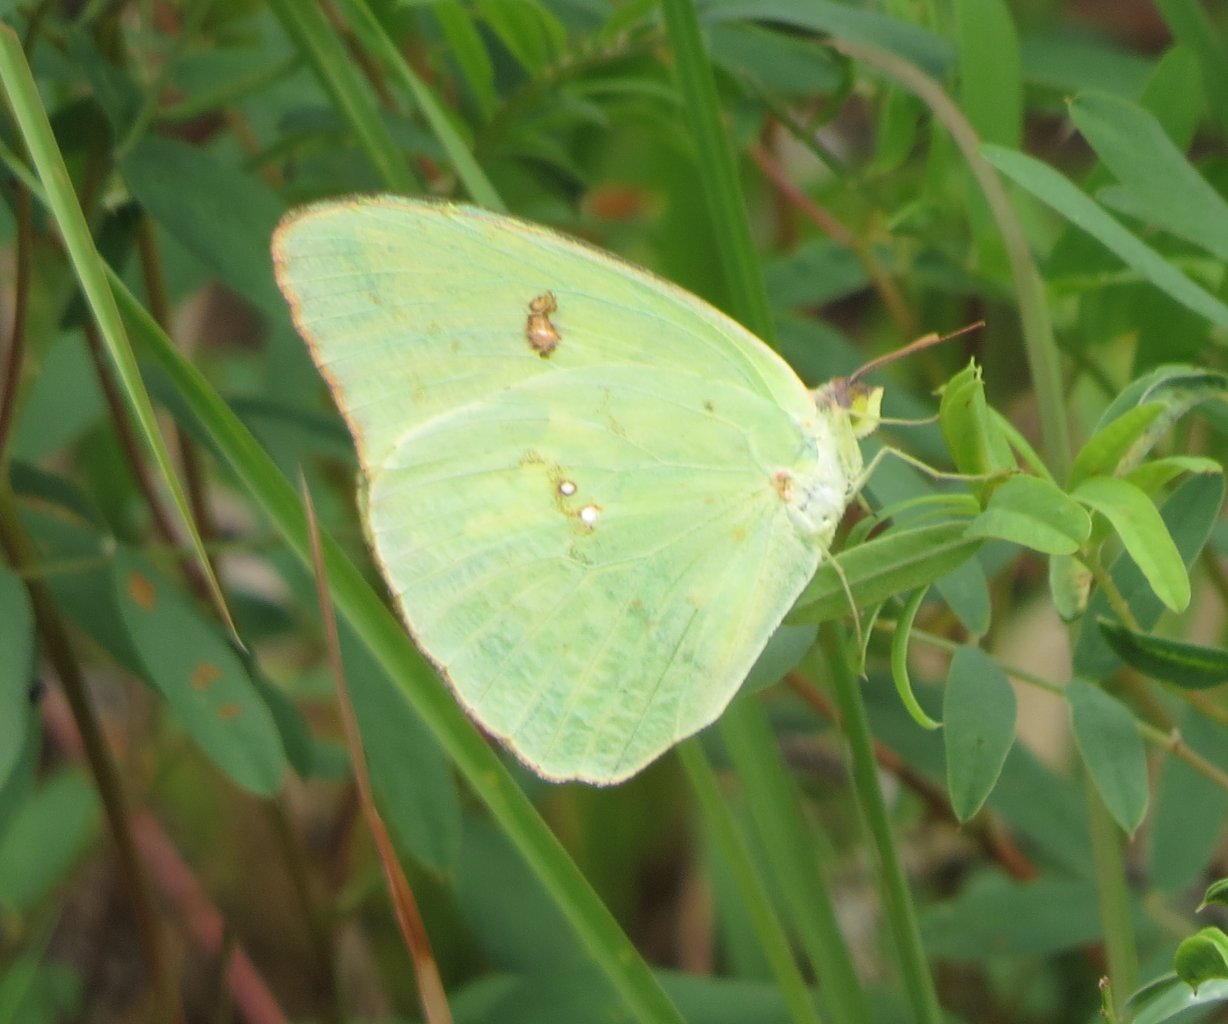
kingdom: Animalia
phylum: Arthropoda
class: Insecta
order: Lepidoptera
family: Pieridae
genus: Phoebis
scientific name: Phoebis sennae
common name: Cloudless Sulphur
